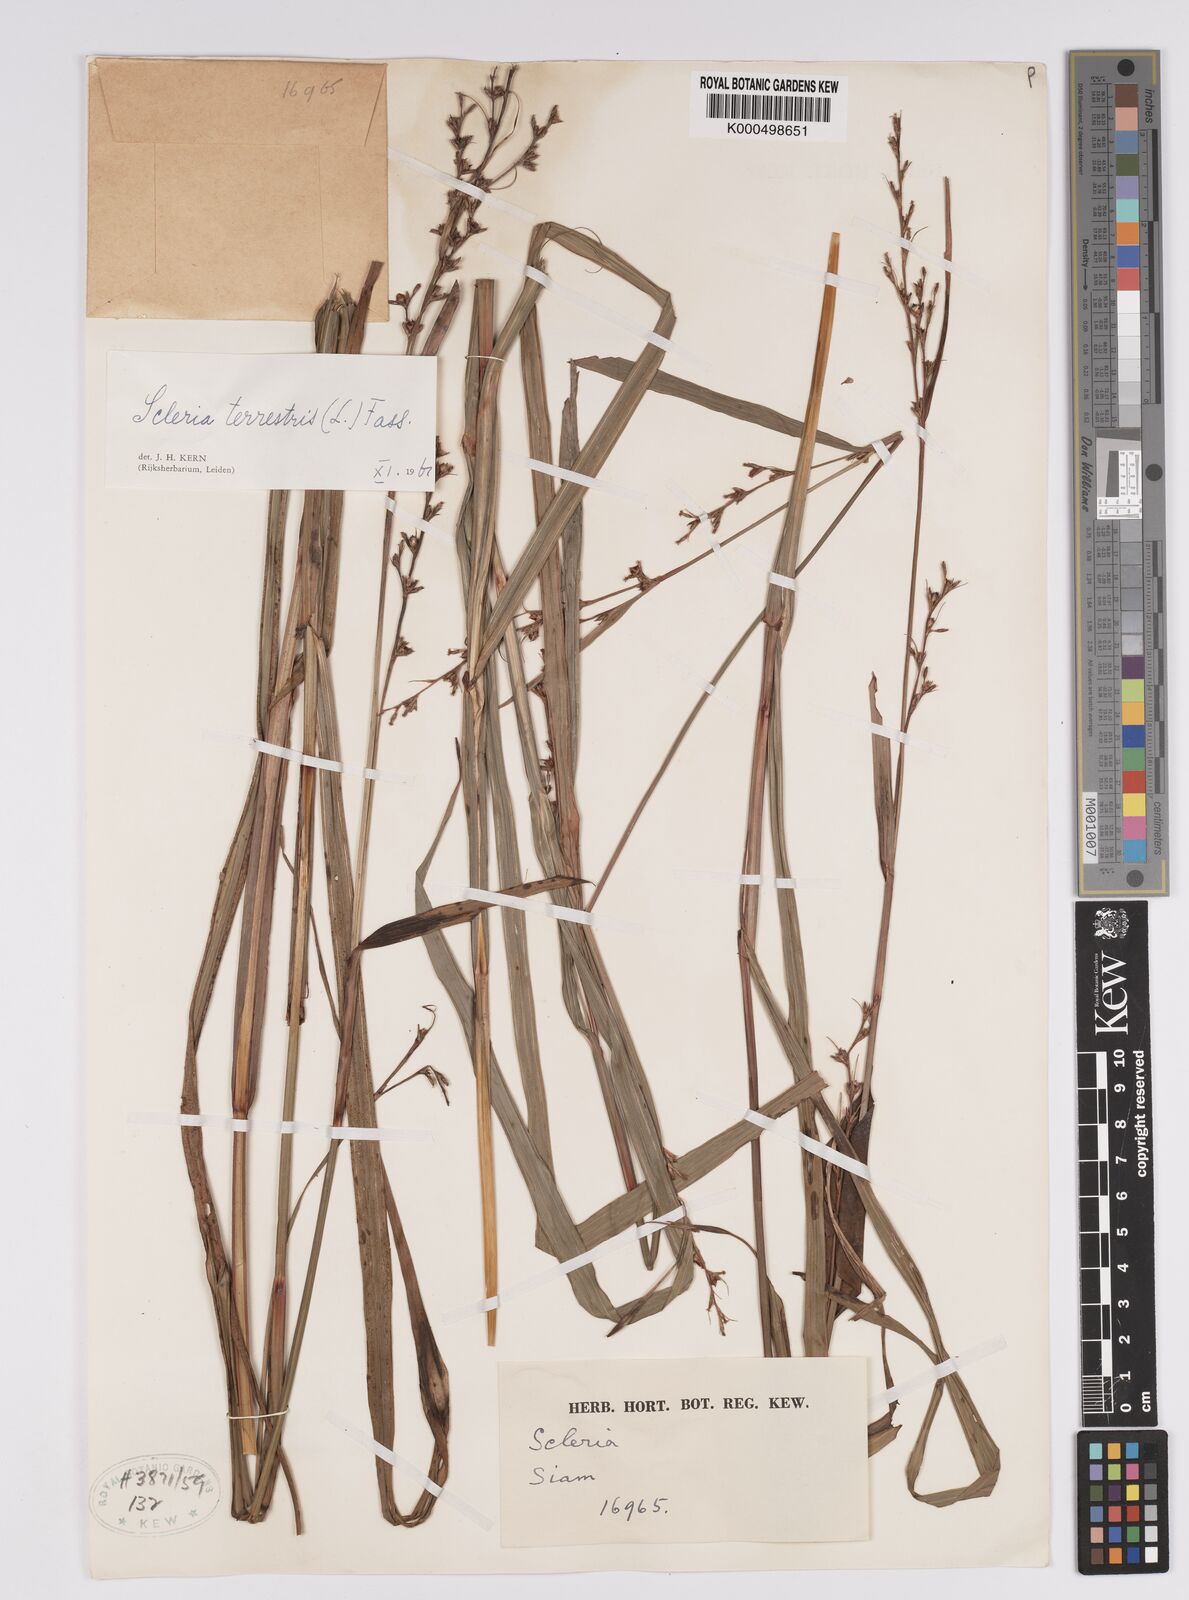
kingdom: Plantae
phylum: Tracheophyta
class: Liliopsida
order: Poales
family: Cyperaceae
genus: Scleria
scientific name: Scleria terrestris
